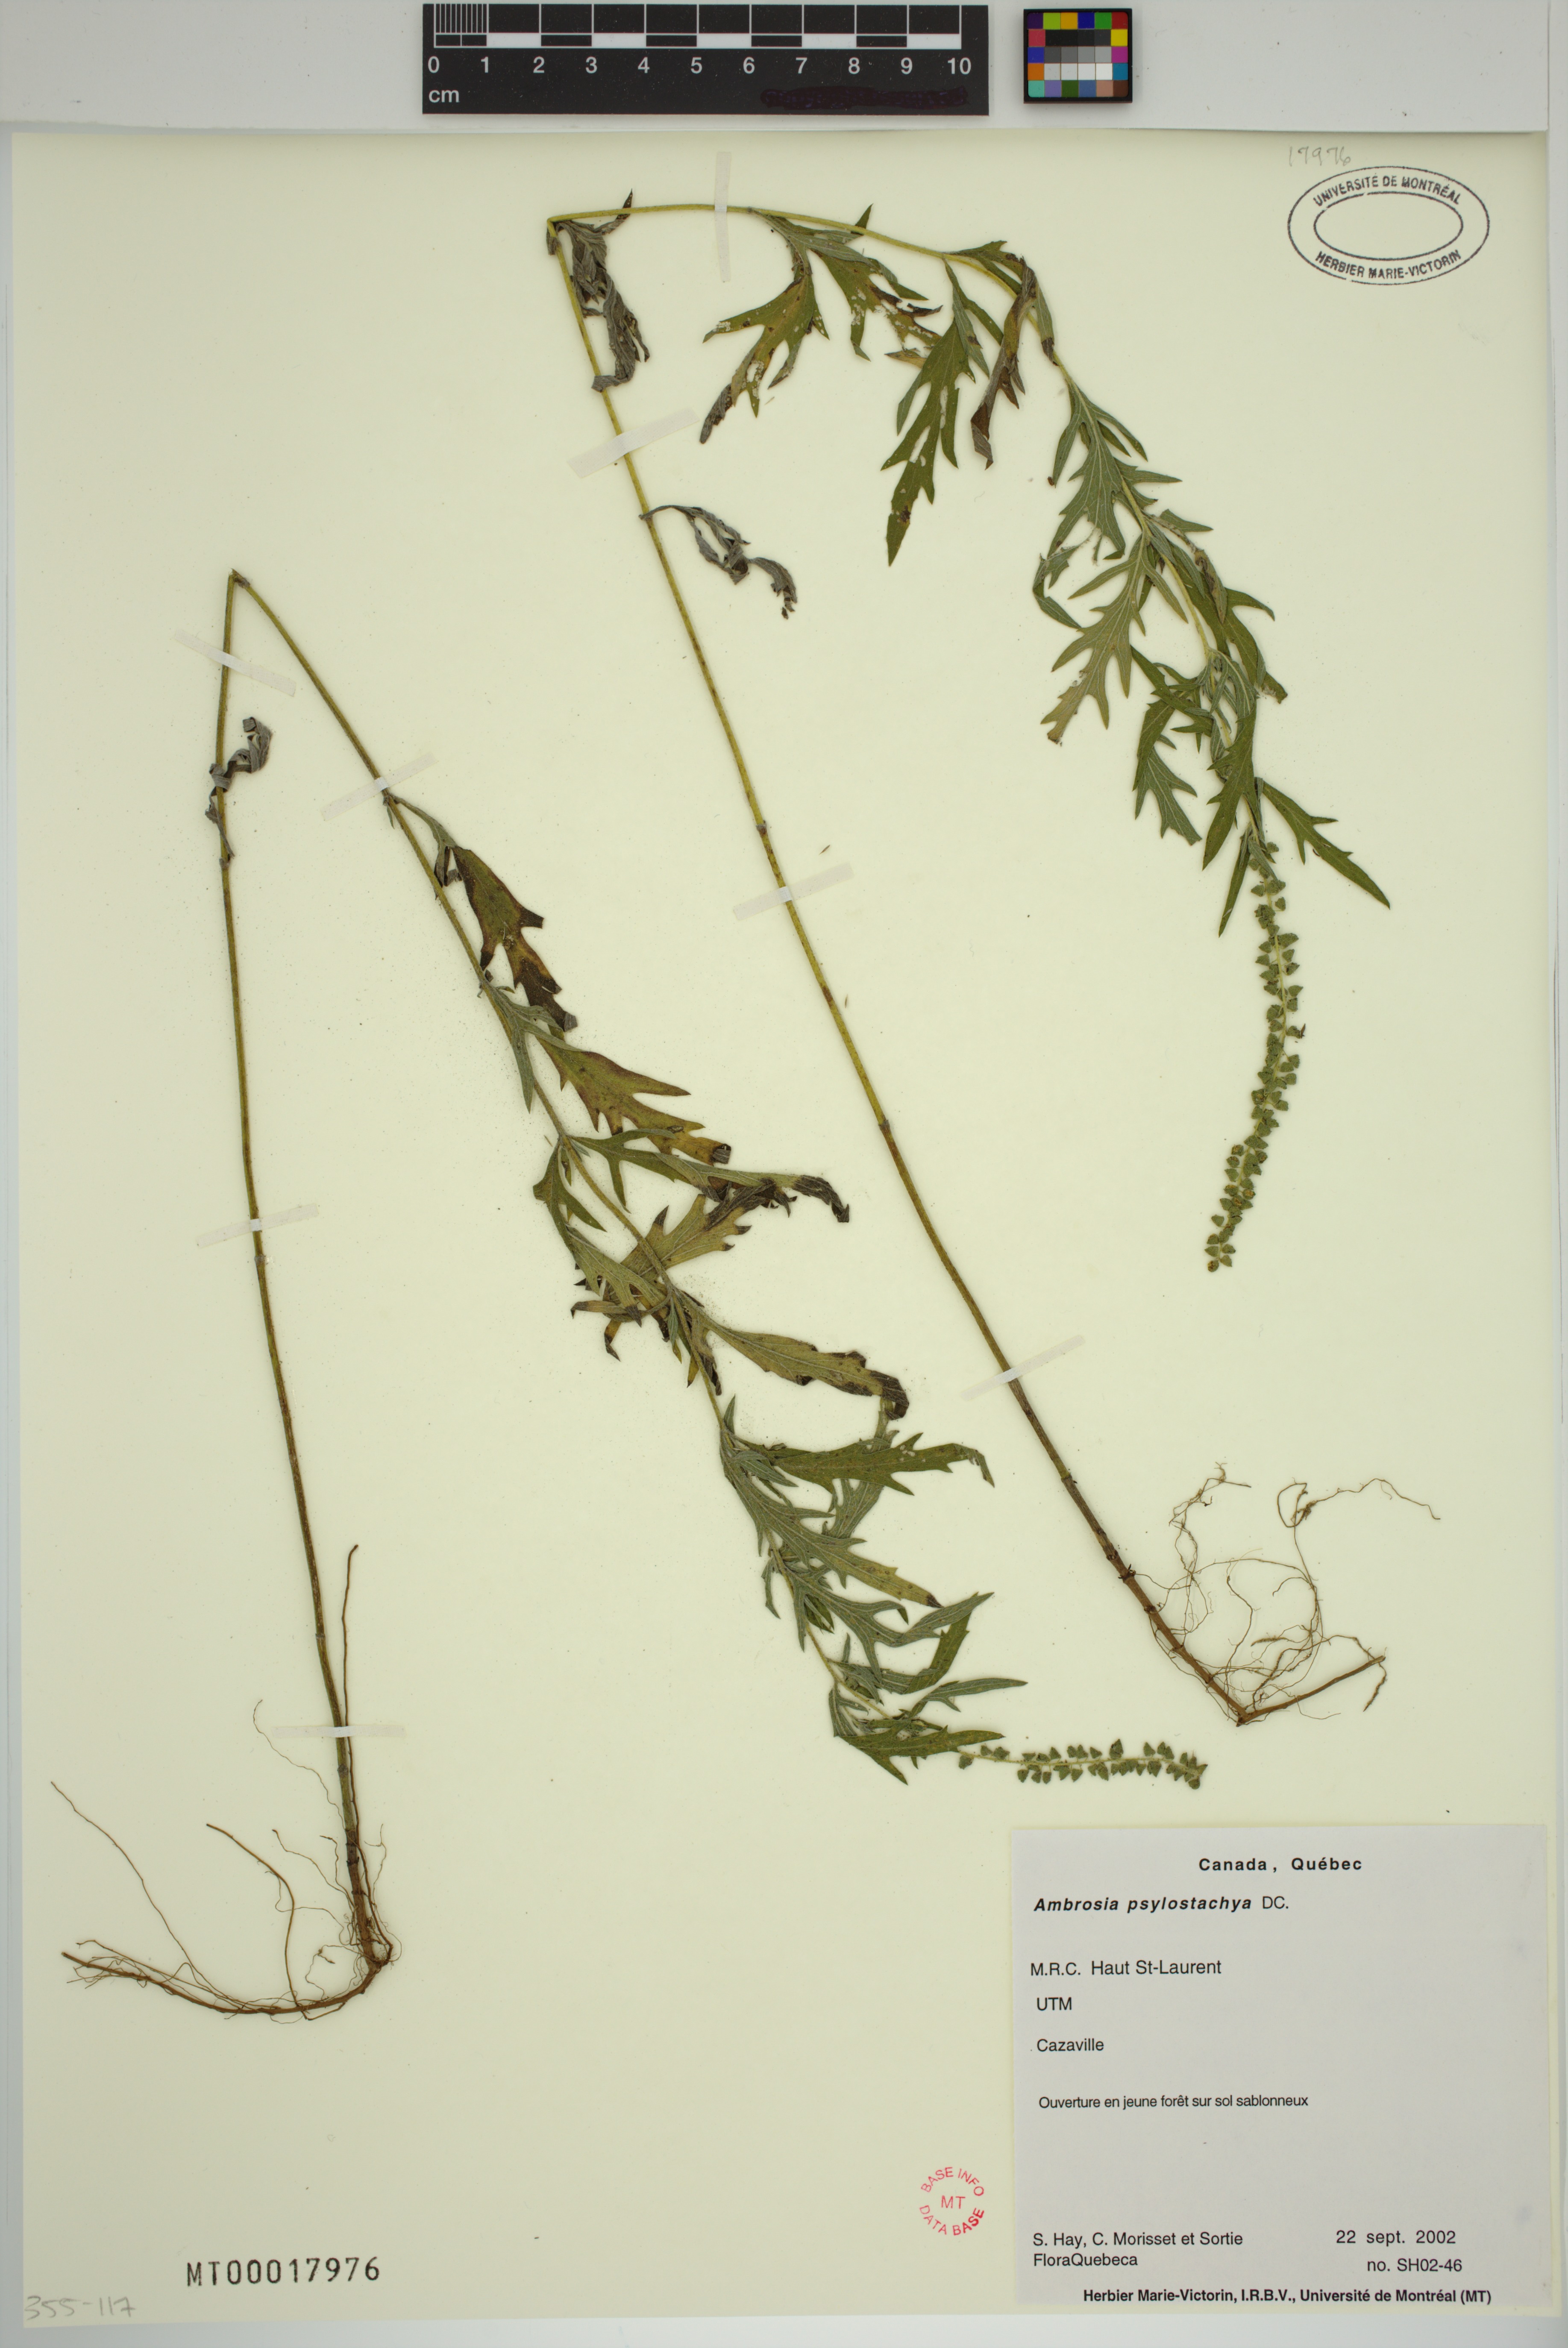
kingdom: Plantae
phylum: Tracheophyta
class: Magnoliopsida
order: Asterales
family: Asteraceae
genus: Ambrosia
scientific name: Ambrosia psilostachya
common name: Perennial ragweed
